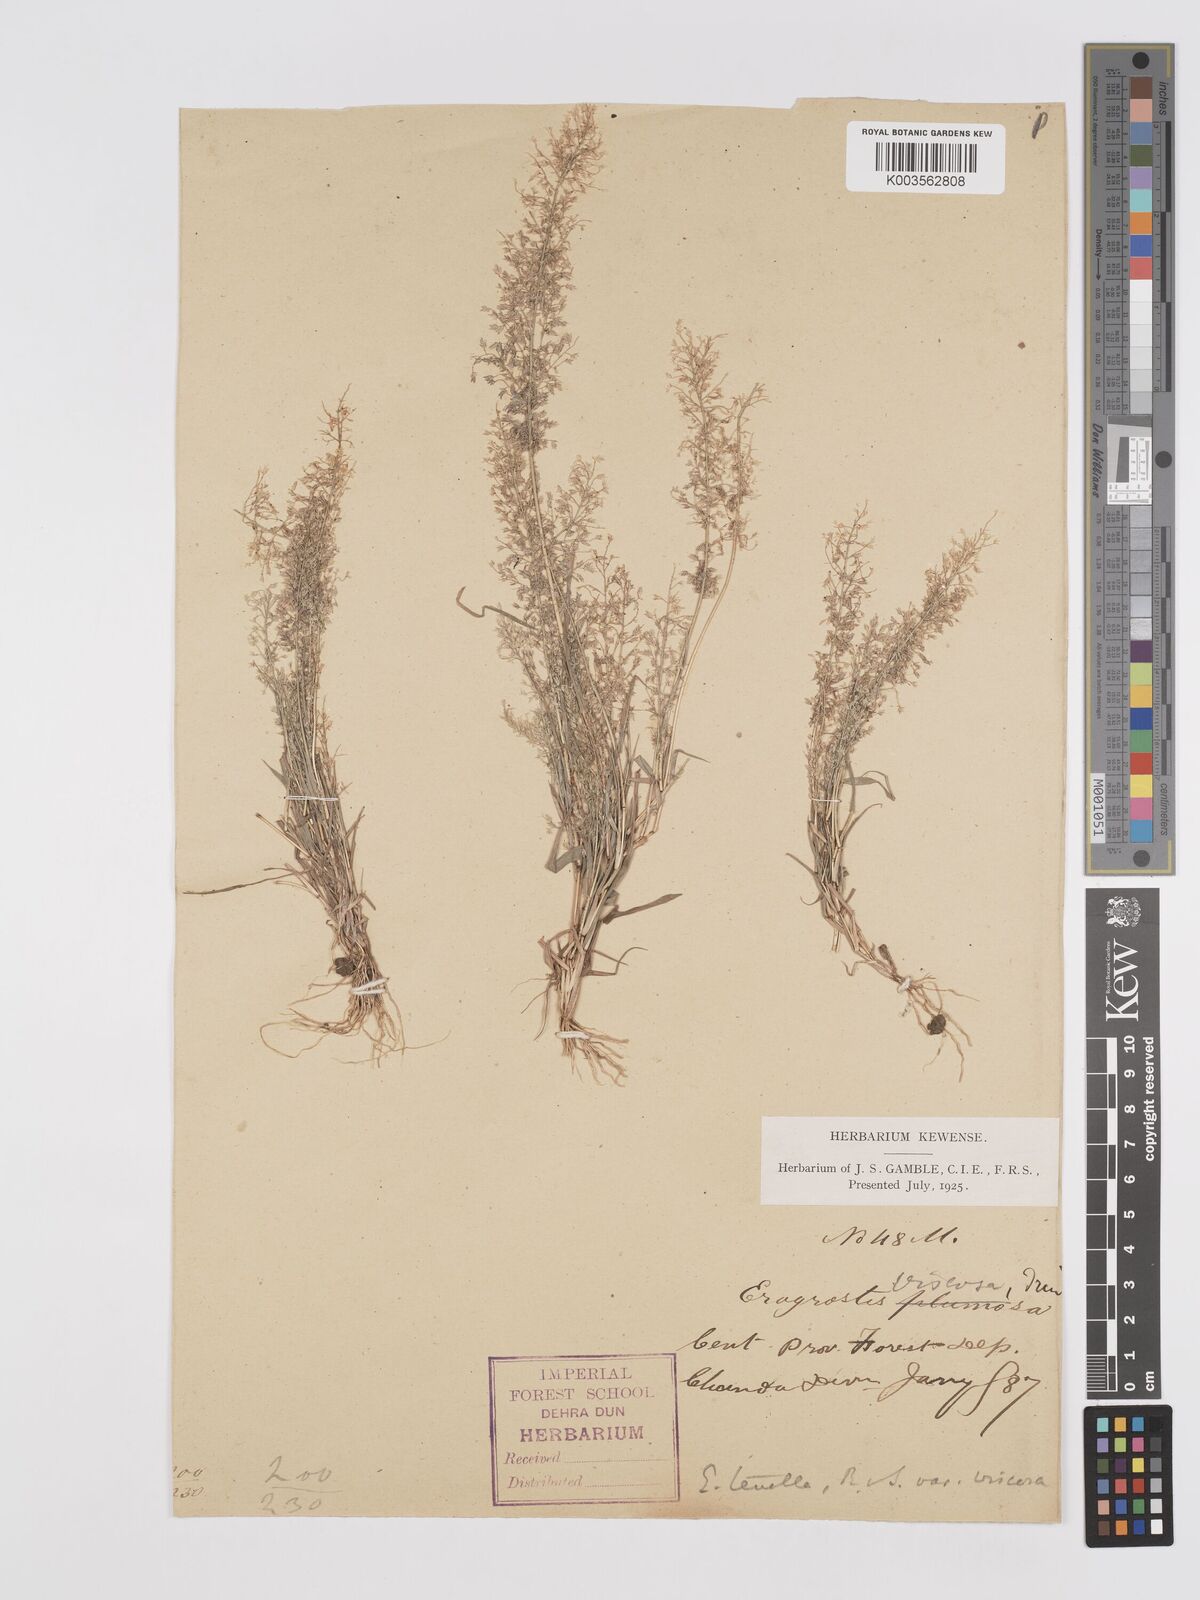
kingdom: Plantae
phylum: Tracheophyta
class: Liliopsida
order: Poales
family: Poaceae
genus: Eragrostis
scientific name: Eragrostis viscosa
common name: Sticky love grass
